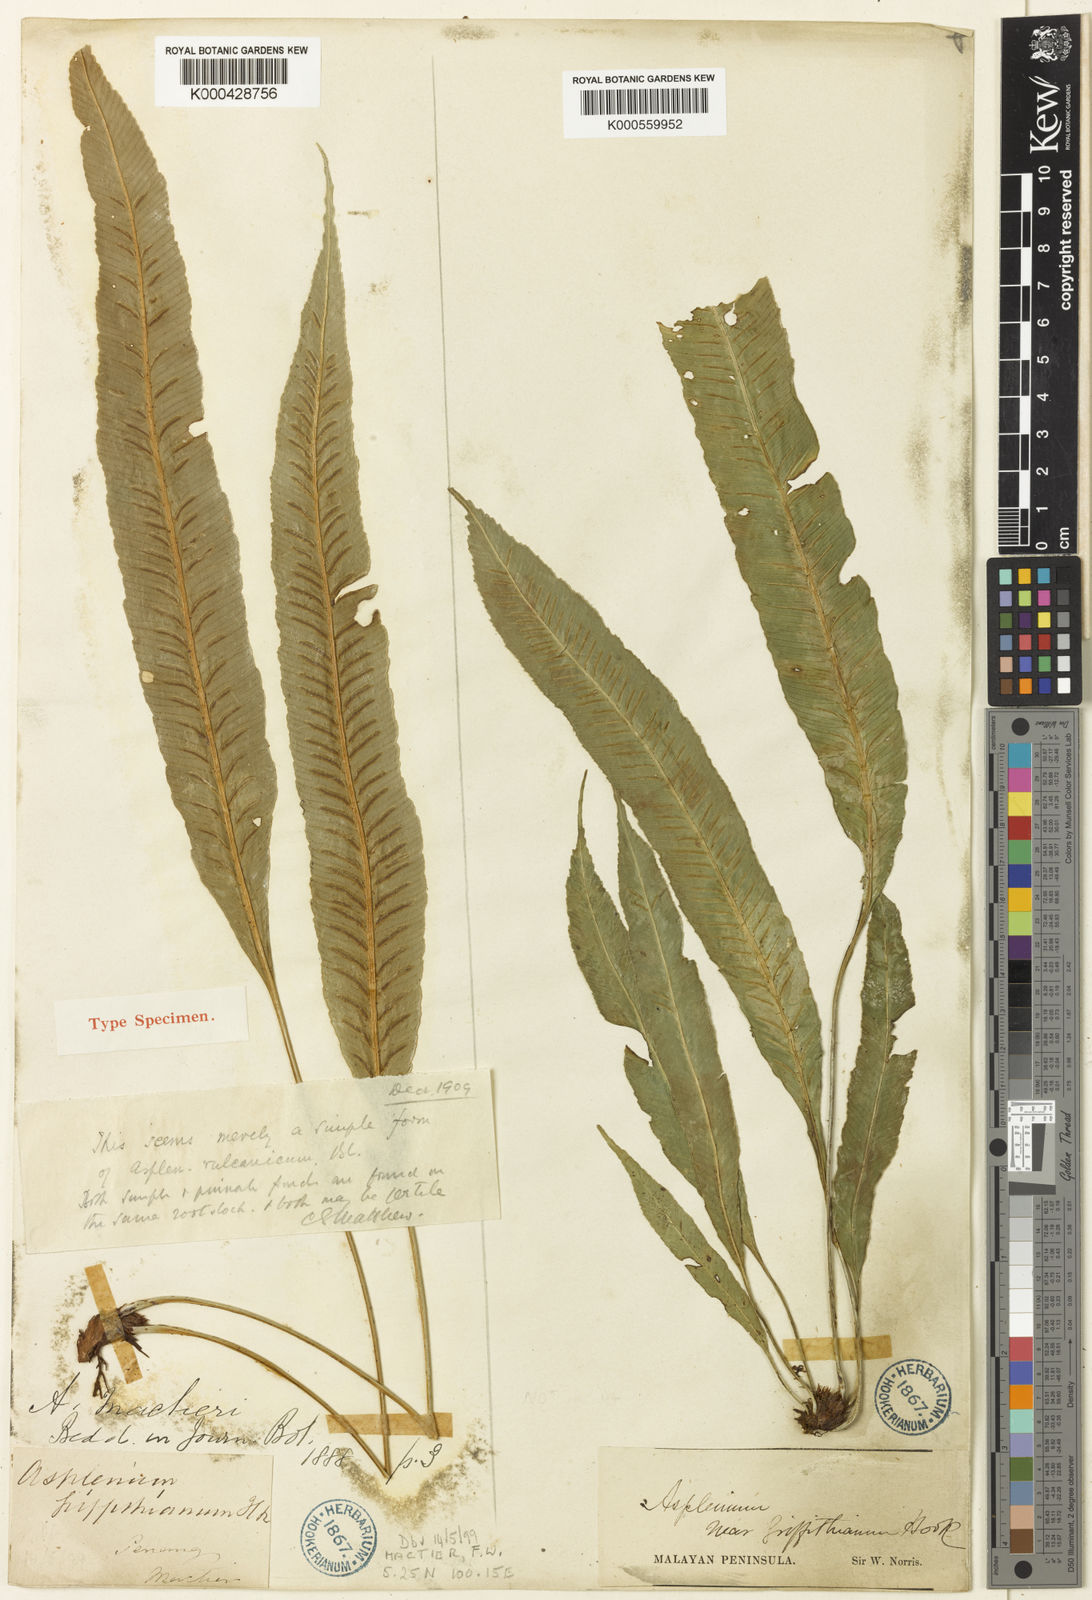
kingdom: Plantae
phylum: Tracheophyta
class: Polypodiopsida
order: Polypodiales
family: Aspleniaceae
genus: Asplenium
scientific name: Asplenium vulcanicum
